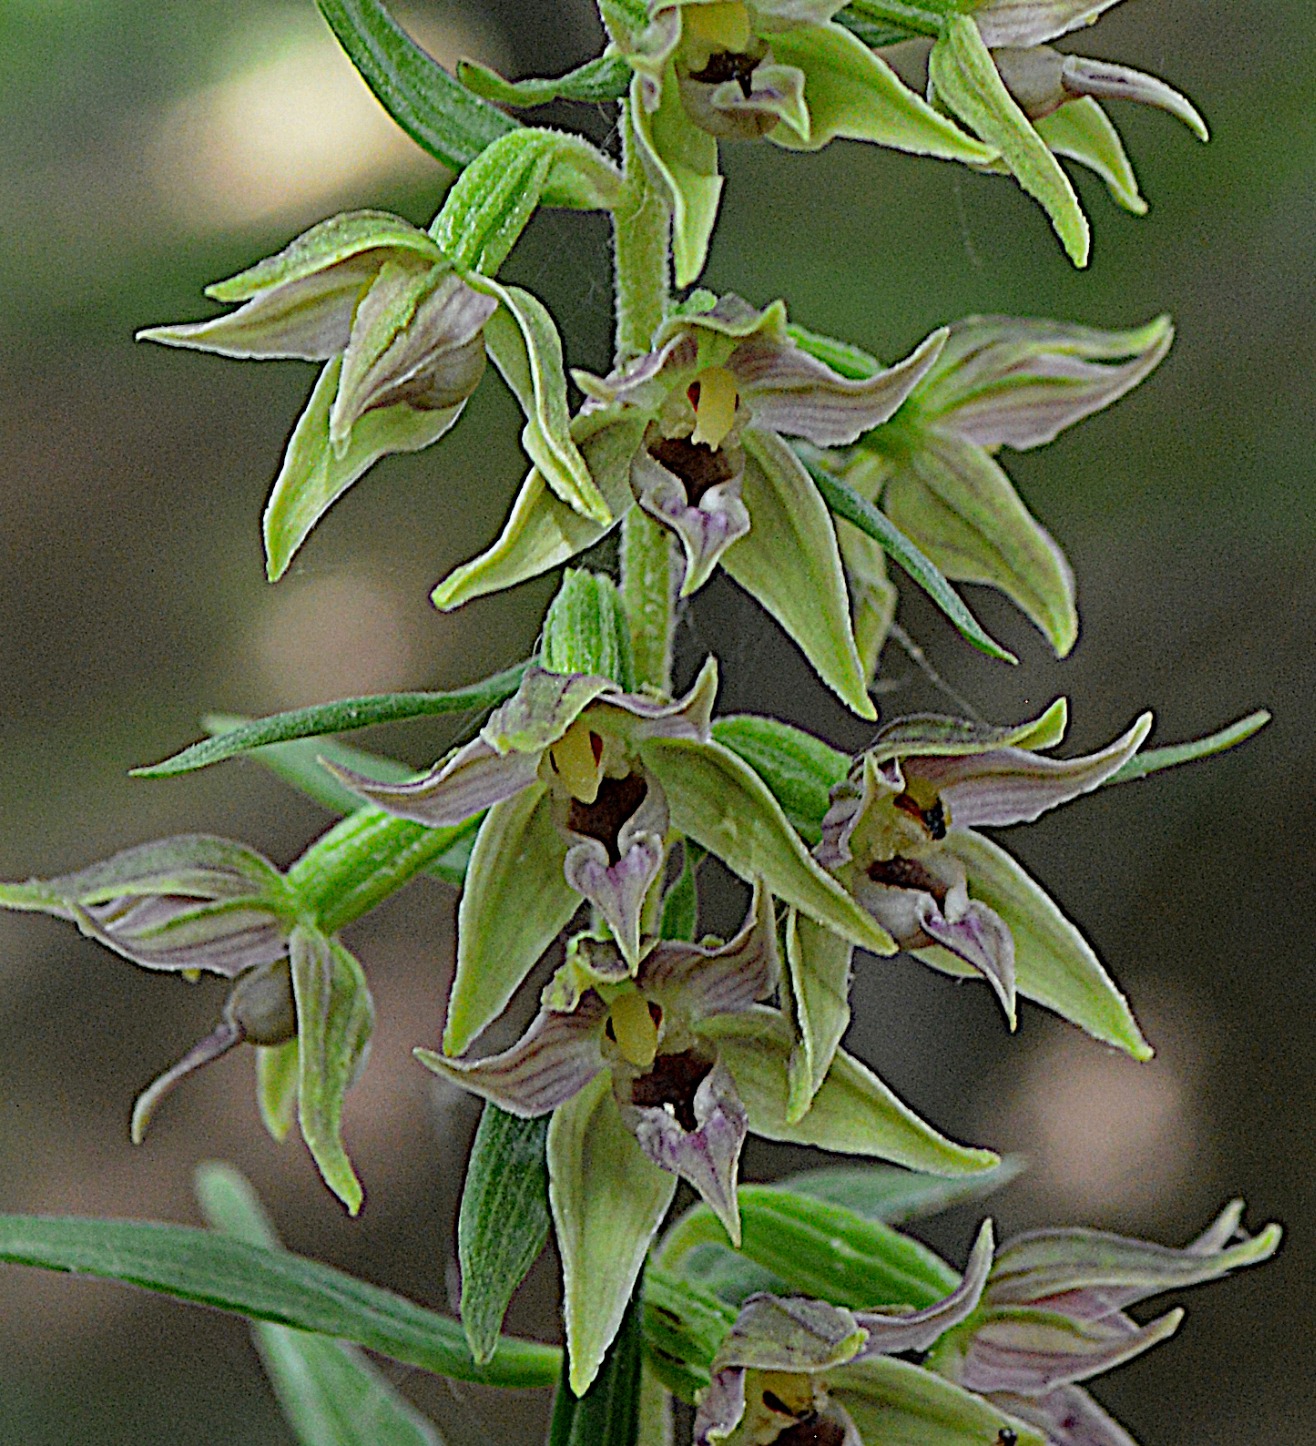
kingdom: Plantae
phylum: Tracheophyta
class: Liliopsida
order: Asparagales
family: Orchidaceae
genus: Epipactis
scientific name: Epipactis leptochila
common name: Storblomstret hullæbe
